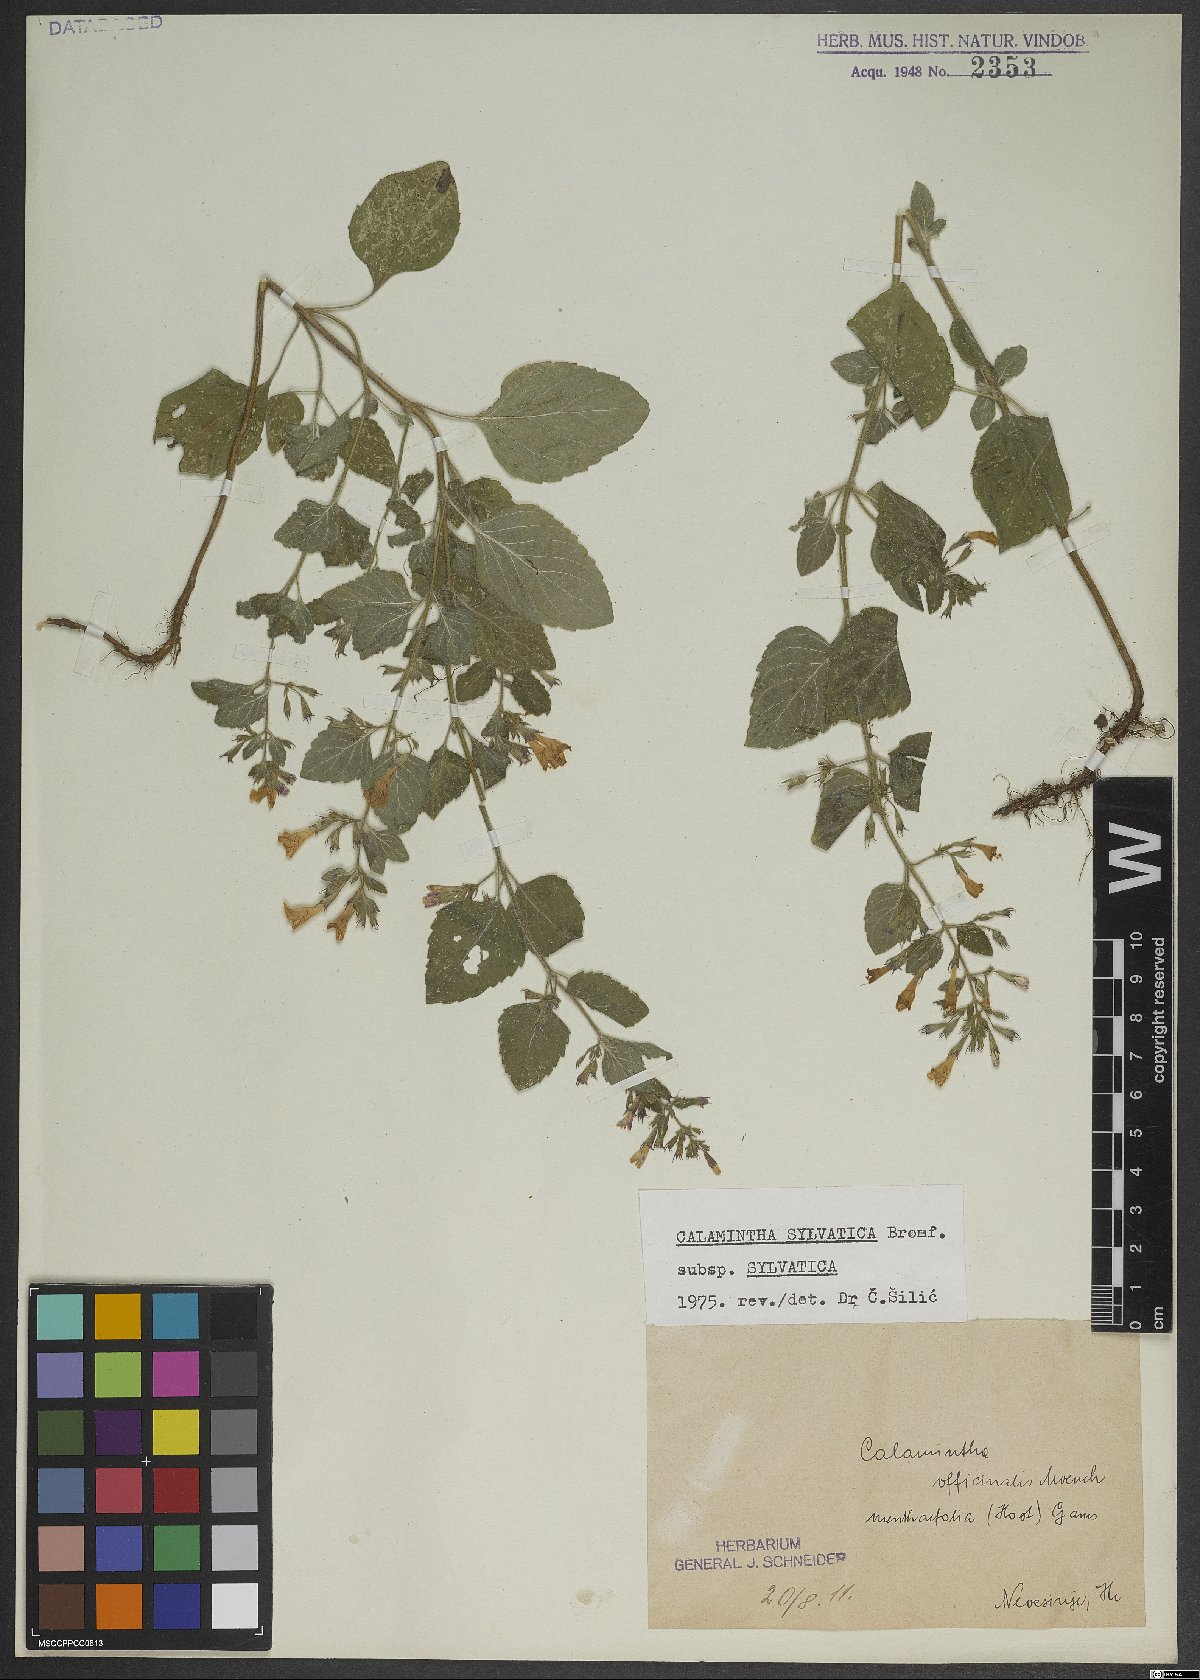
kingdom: Plantae
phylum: Tracheophyta
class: Magnoliopsida
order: Lamiales
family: Lamiaceae
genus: Clinopodium
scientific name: Clinopodium menthifolium
